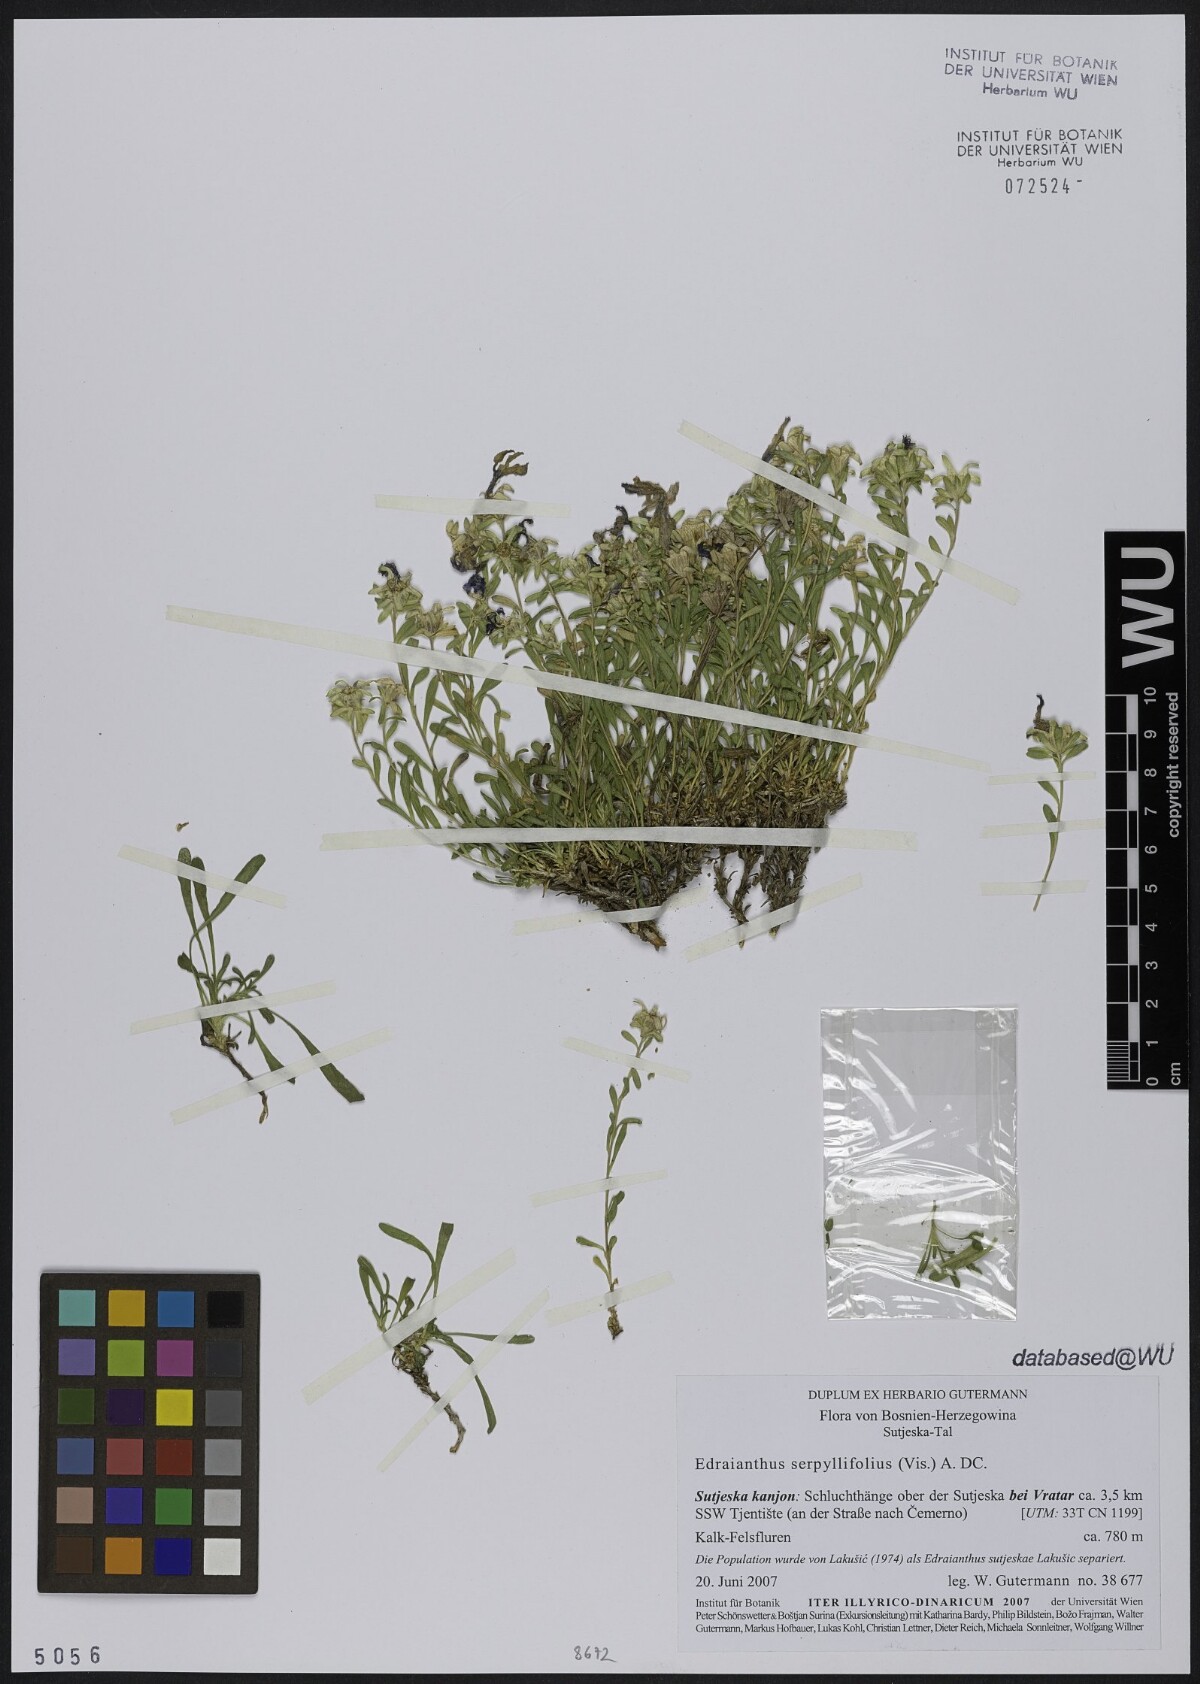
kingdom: Plantae
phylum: Tracheophyta
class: Magnoliopsida
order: Asterales
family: Campanulaceae
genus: Edraianthus
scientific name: Edraianthus sutjeskae
